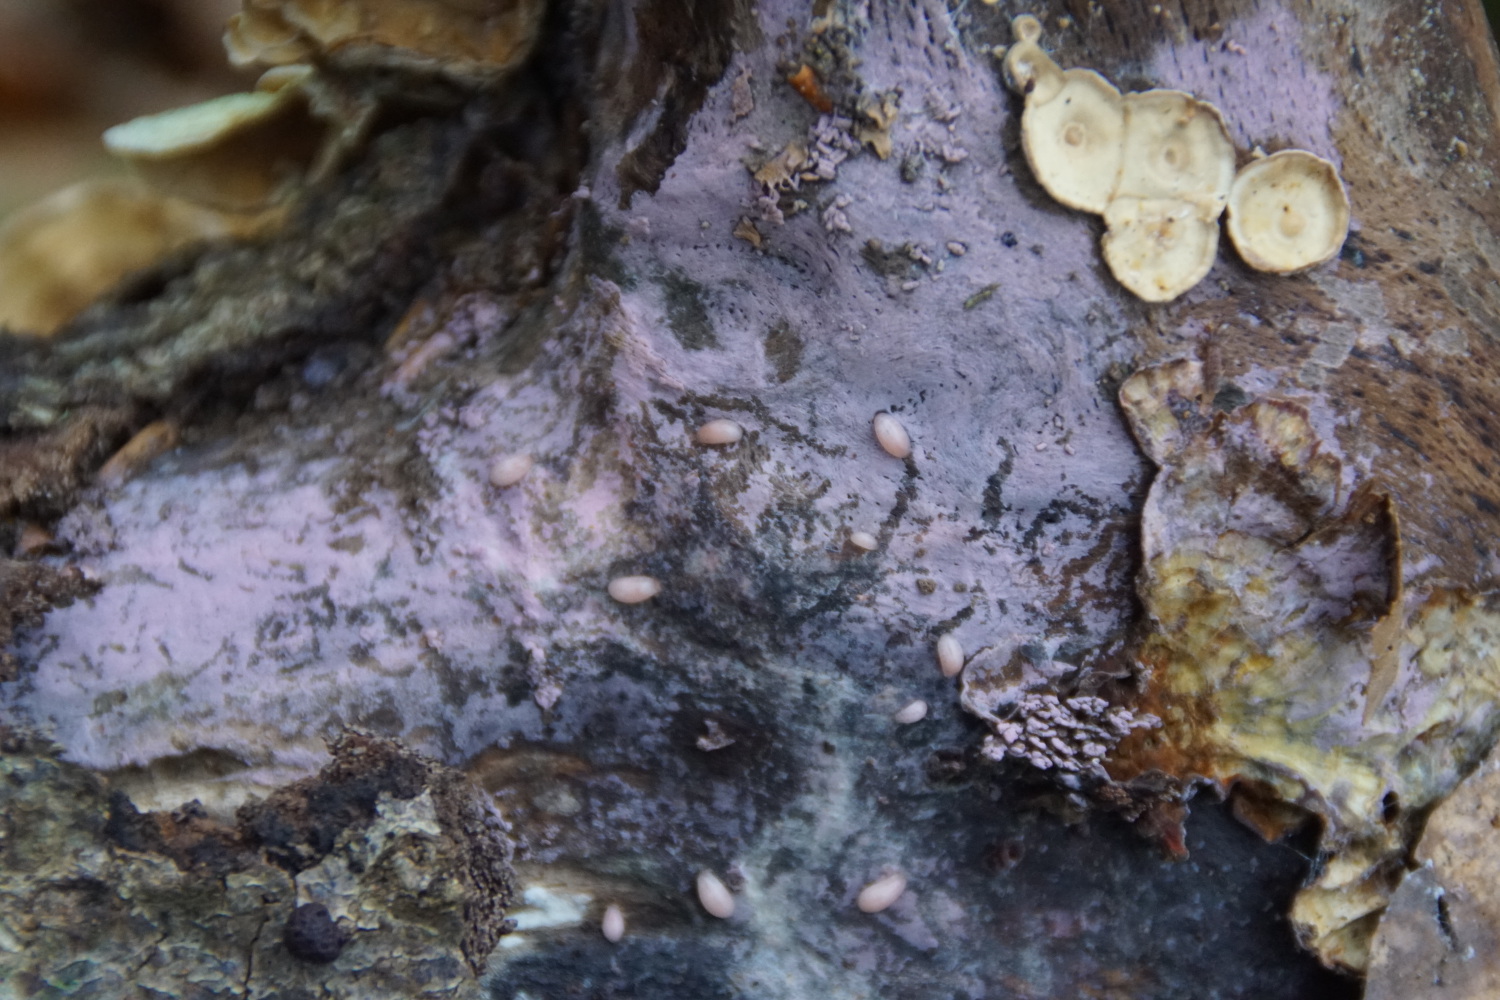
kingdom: Fungi
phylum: Basidiomycota
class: Agaricomycetes
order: Cantharellales
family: Tulasnellaceae
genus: Tulasnella
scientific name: Tulasnella violea
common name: violet ballonhinde
